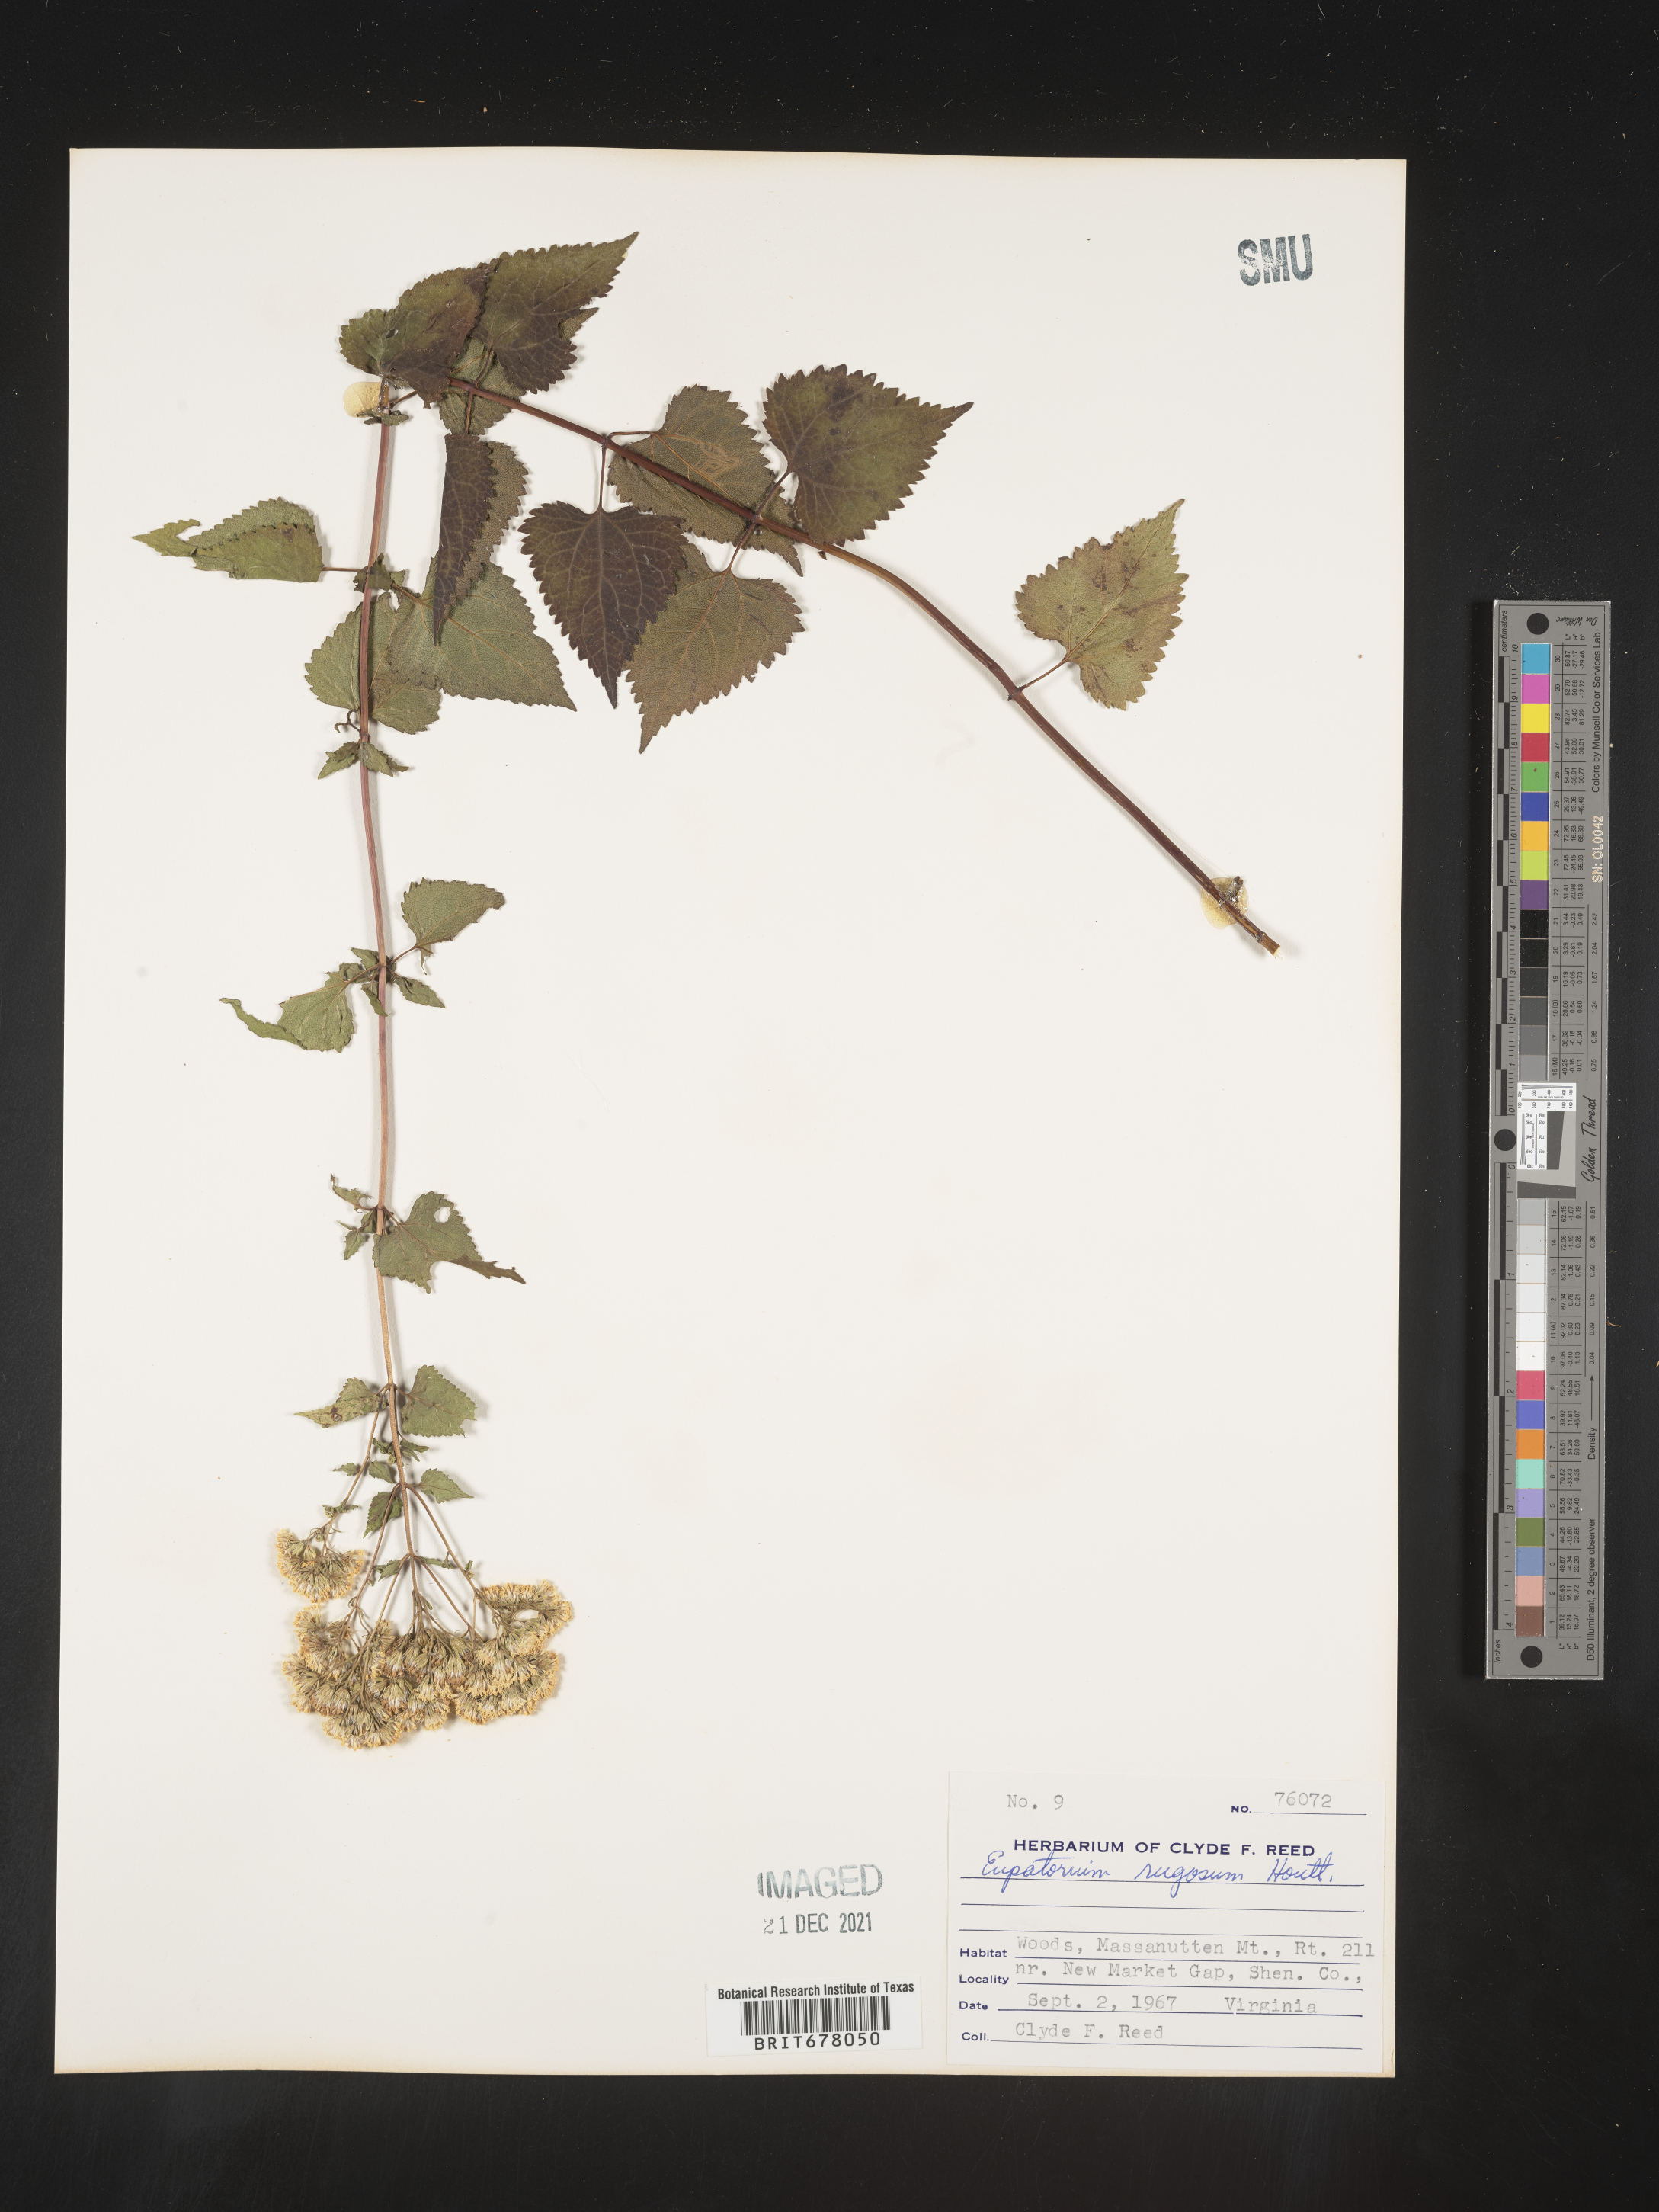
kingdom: Plantae
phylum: Tracheophyta
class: Magnoliopsida
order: Asterales
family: Asteraceae
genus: Eupatorium
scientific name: Eupatorium
